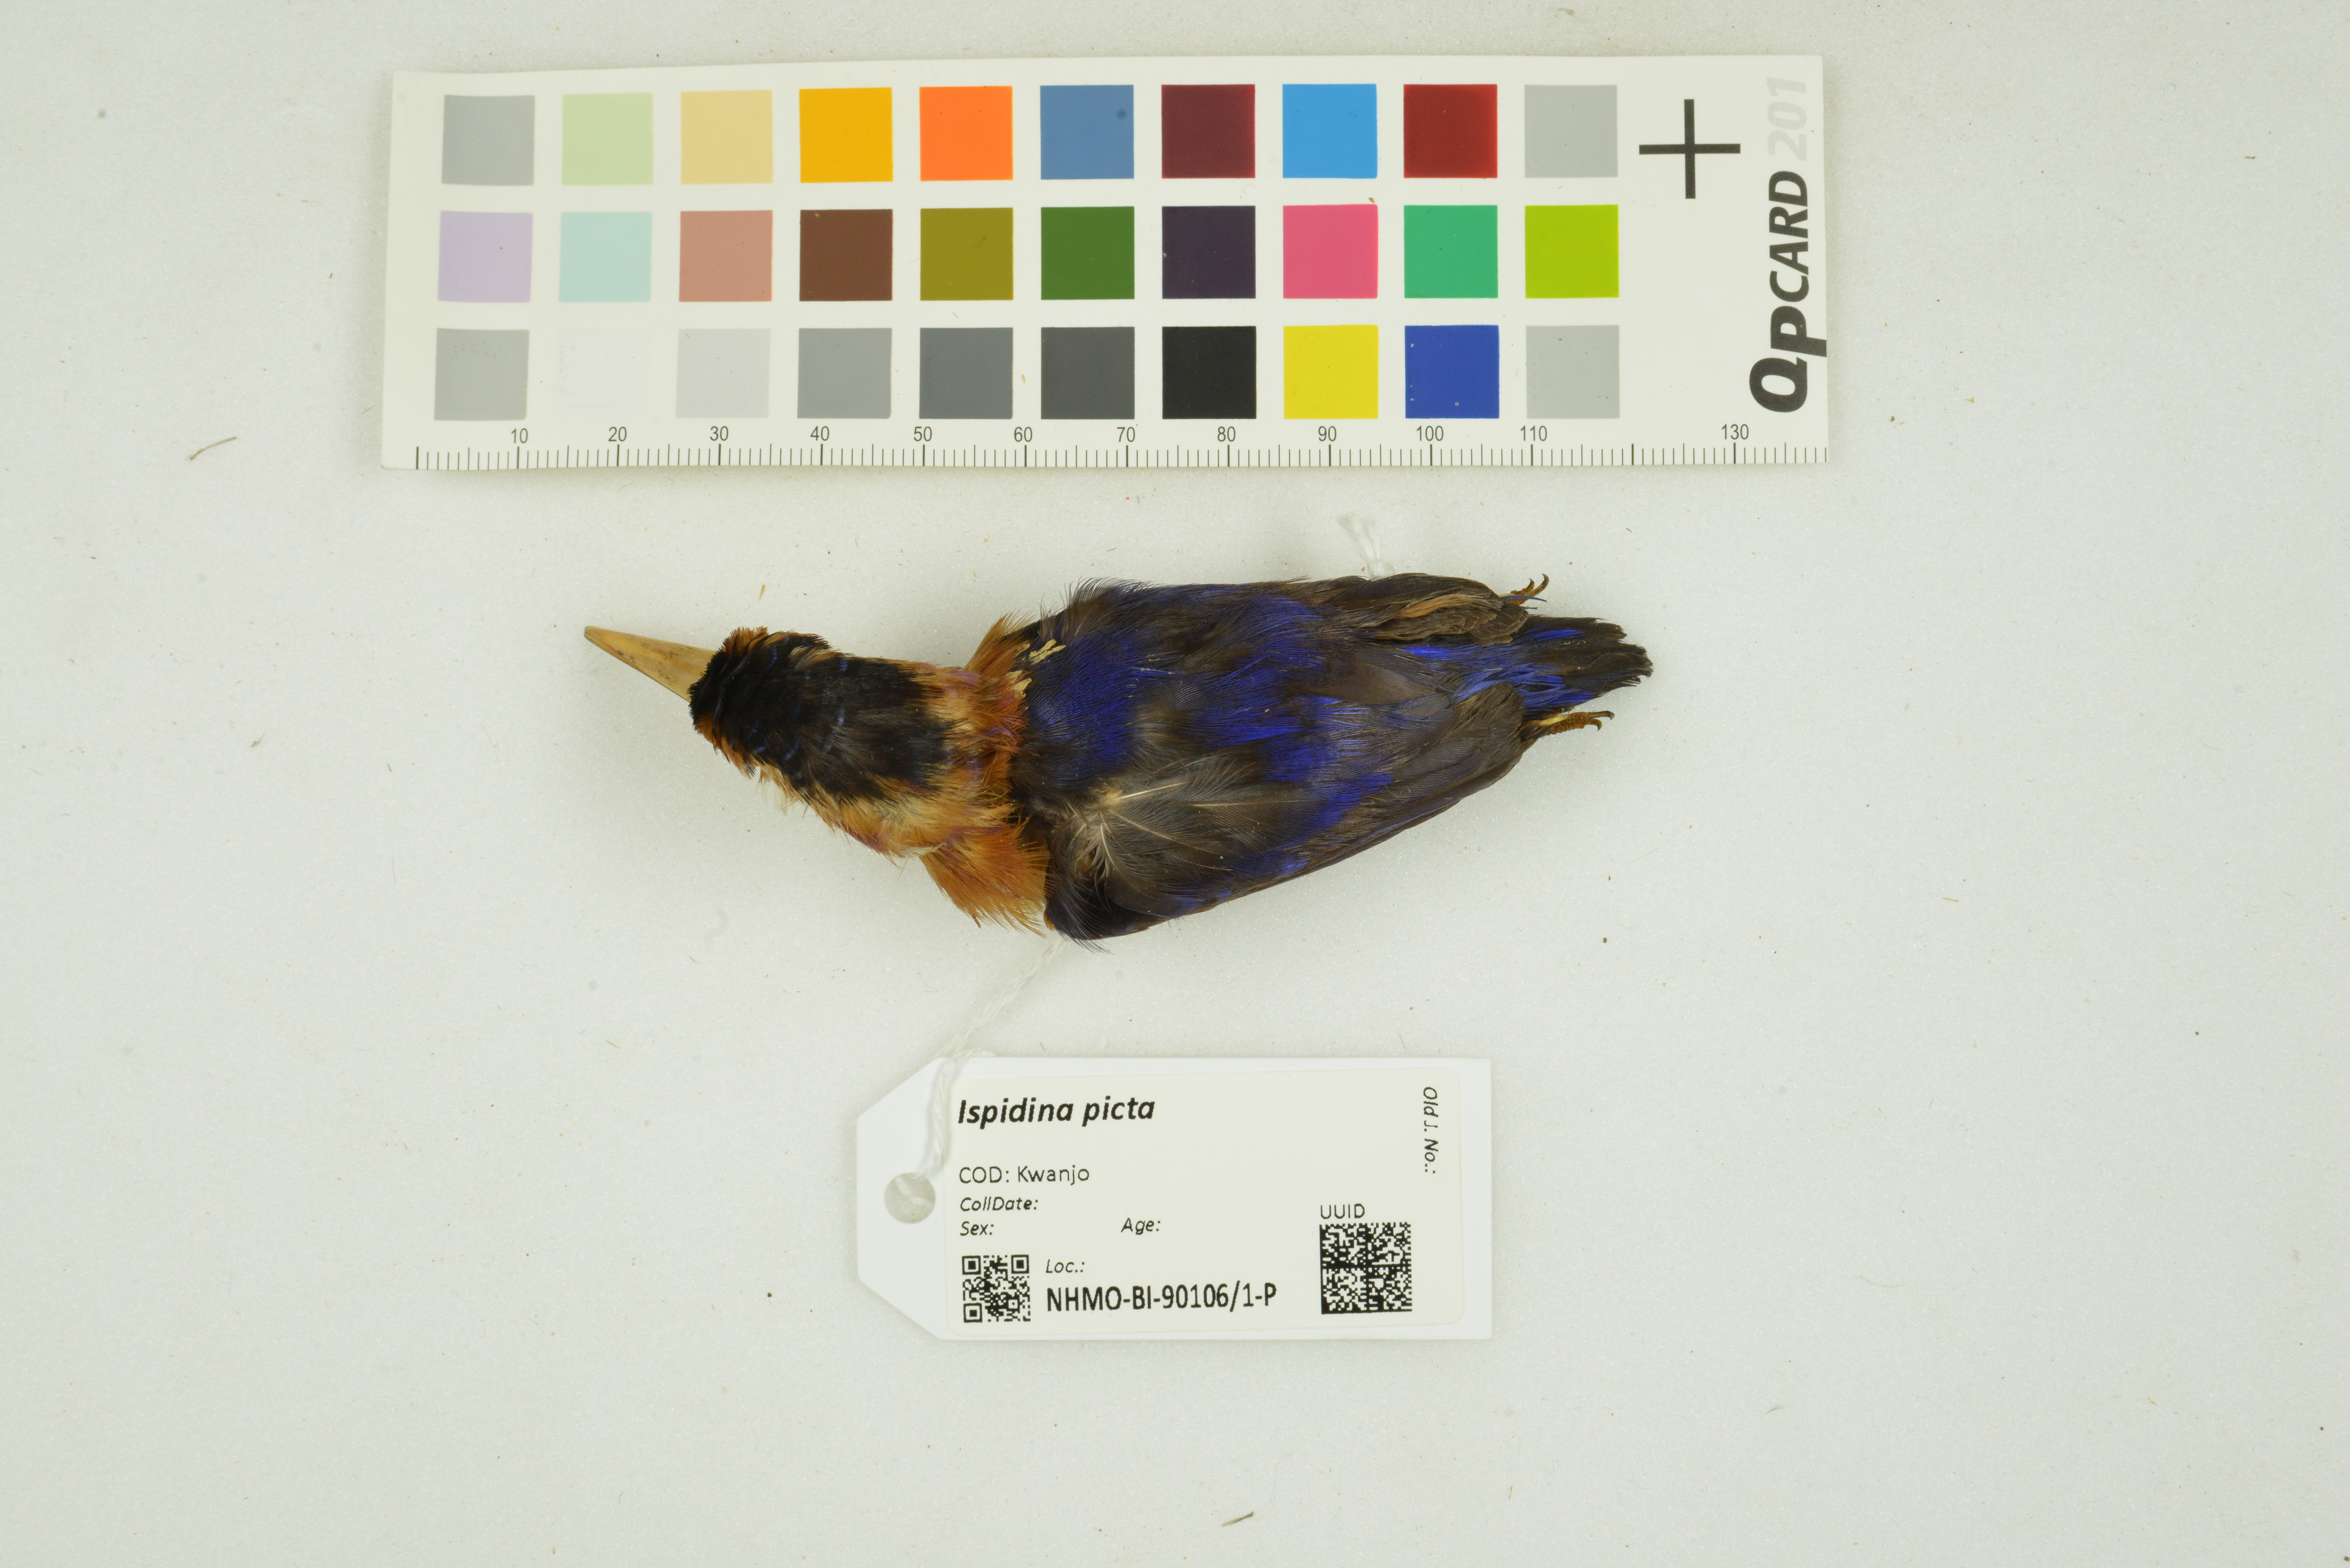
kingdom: Animalia
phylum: Chordata
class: Aves
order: Coraciiformes
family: Alcedinidae
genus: Ispidina
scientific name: Ispidina picta
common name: African pygmy-kingfisher
